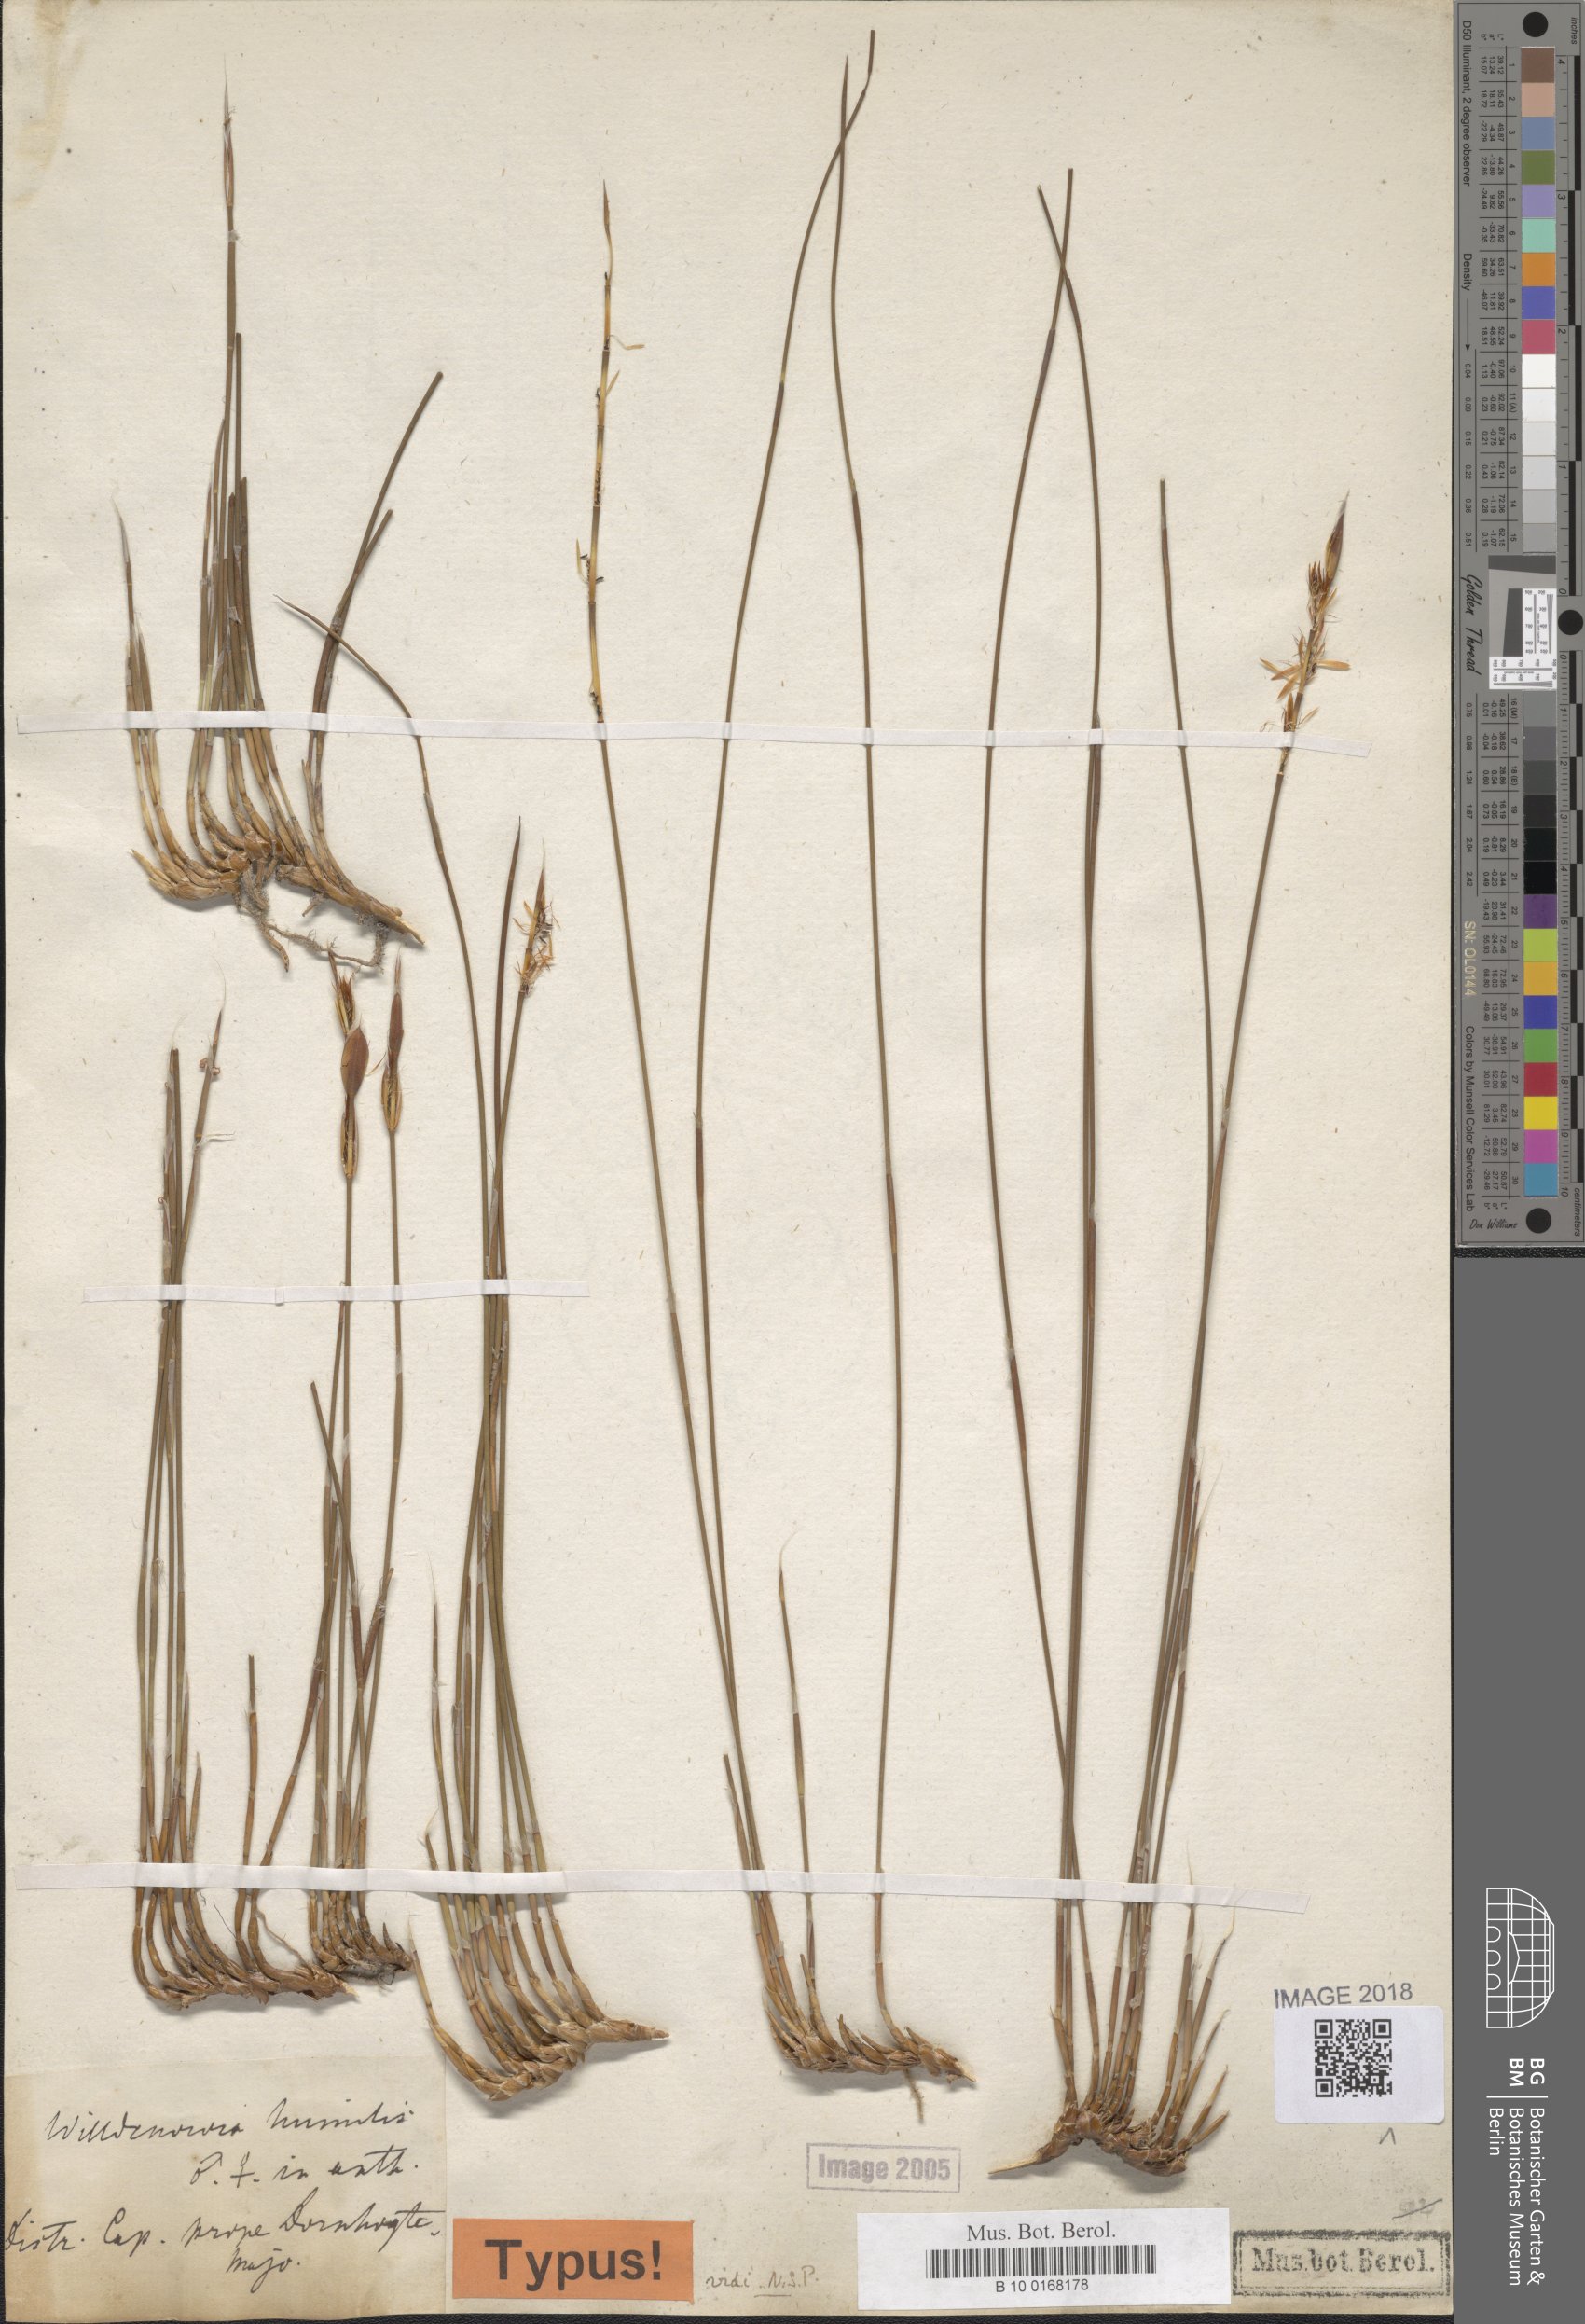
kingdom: Plantae
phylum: Tracheophyta
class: Liliopsida
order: Poales
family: Restionaceae
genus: Willdenowia
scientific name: Willdenowia humilis
